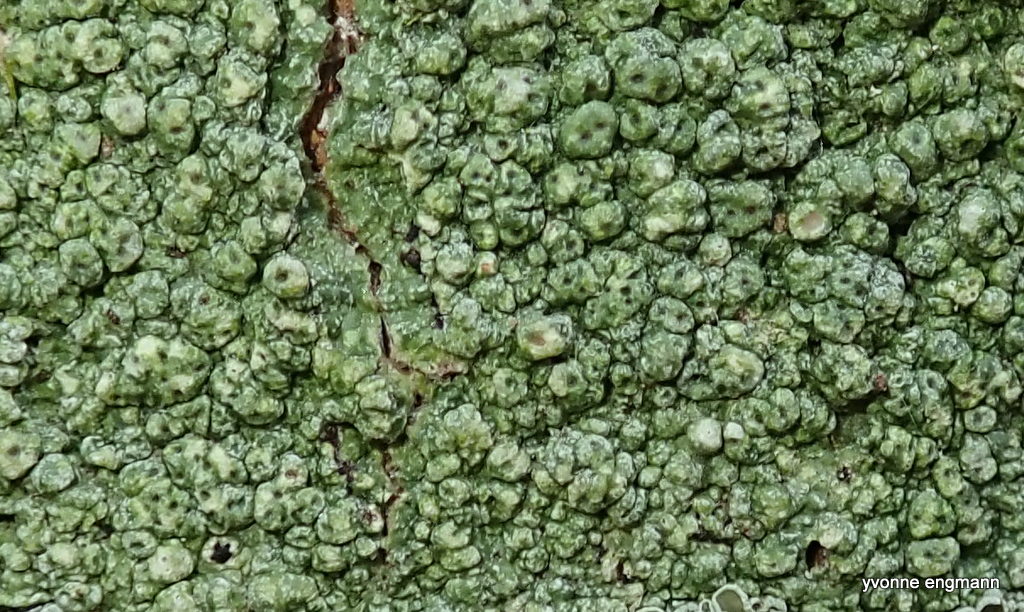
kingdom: Fungi
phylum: Ascomycota
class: Lecanoromycetes
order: Pertusariales
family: Pertusariaceae
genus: Pertusaria
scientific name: Pertusaria hymenea
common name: åben prikvortelav
